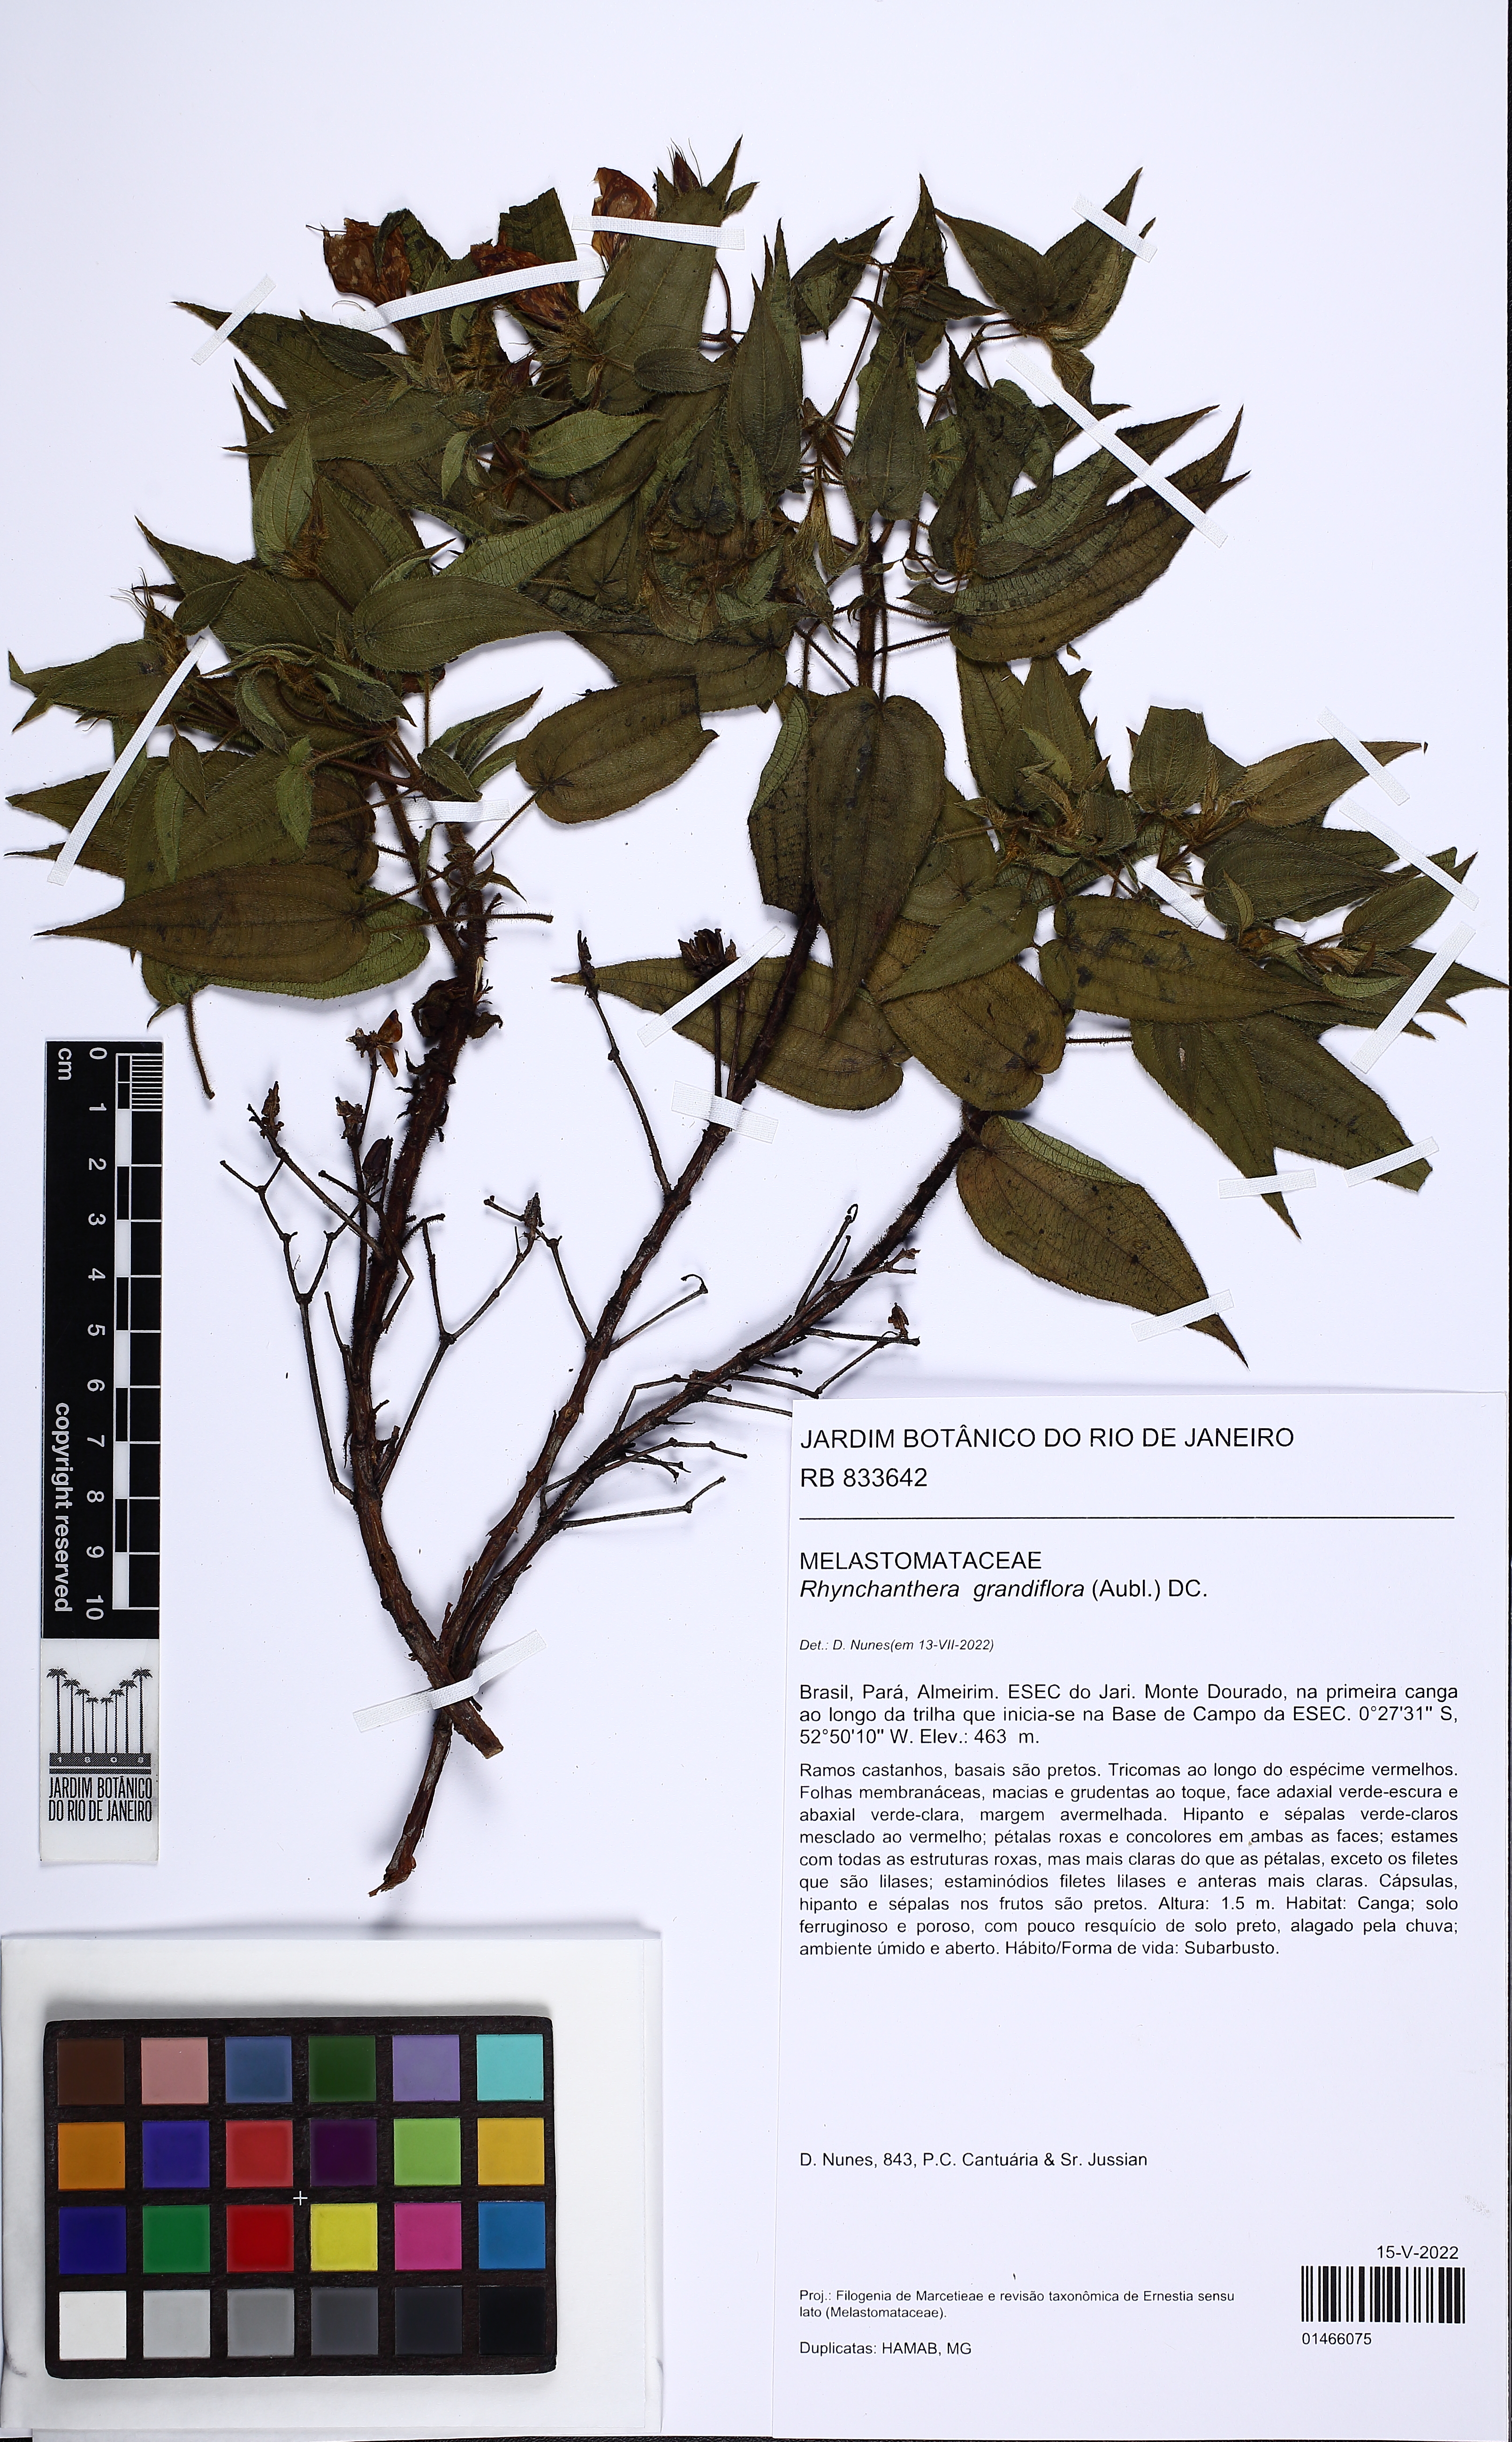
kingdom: Plantae
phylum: Tracheophyta
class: Magnoliopsida
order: Myrtales
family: Melastomataceae
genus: Rhynchanthera
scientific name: Rhynchanthera grandiflora
